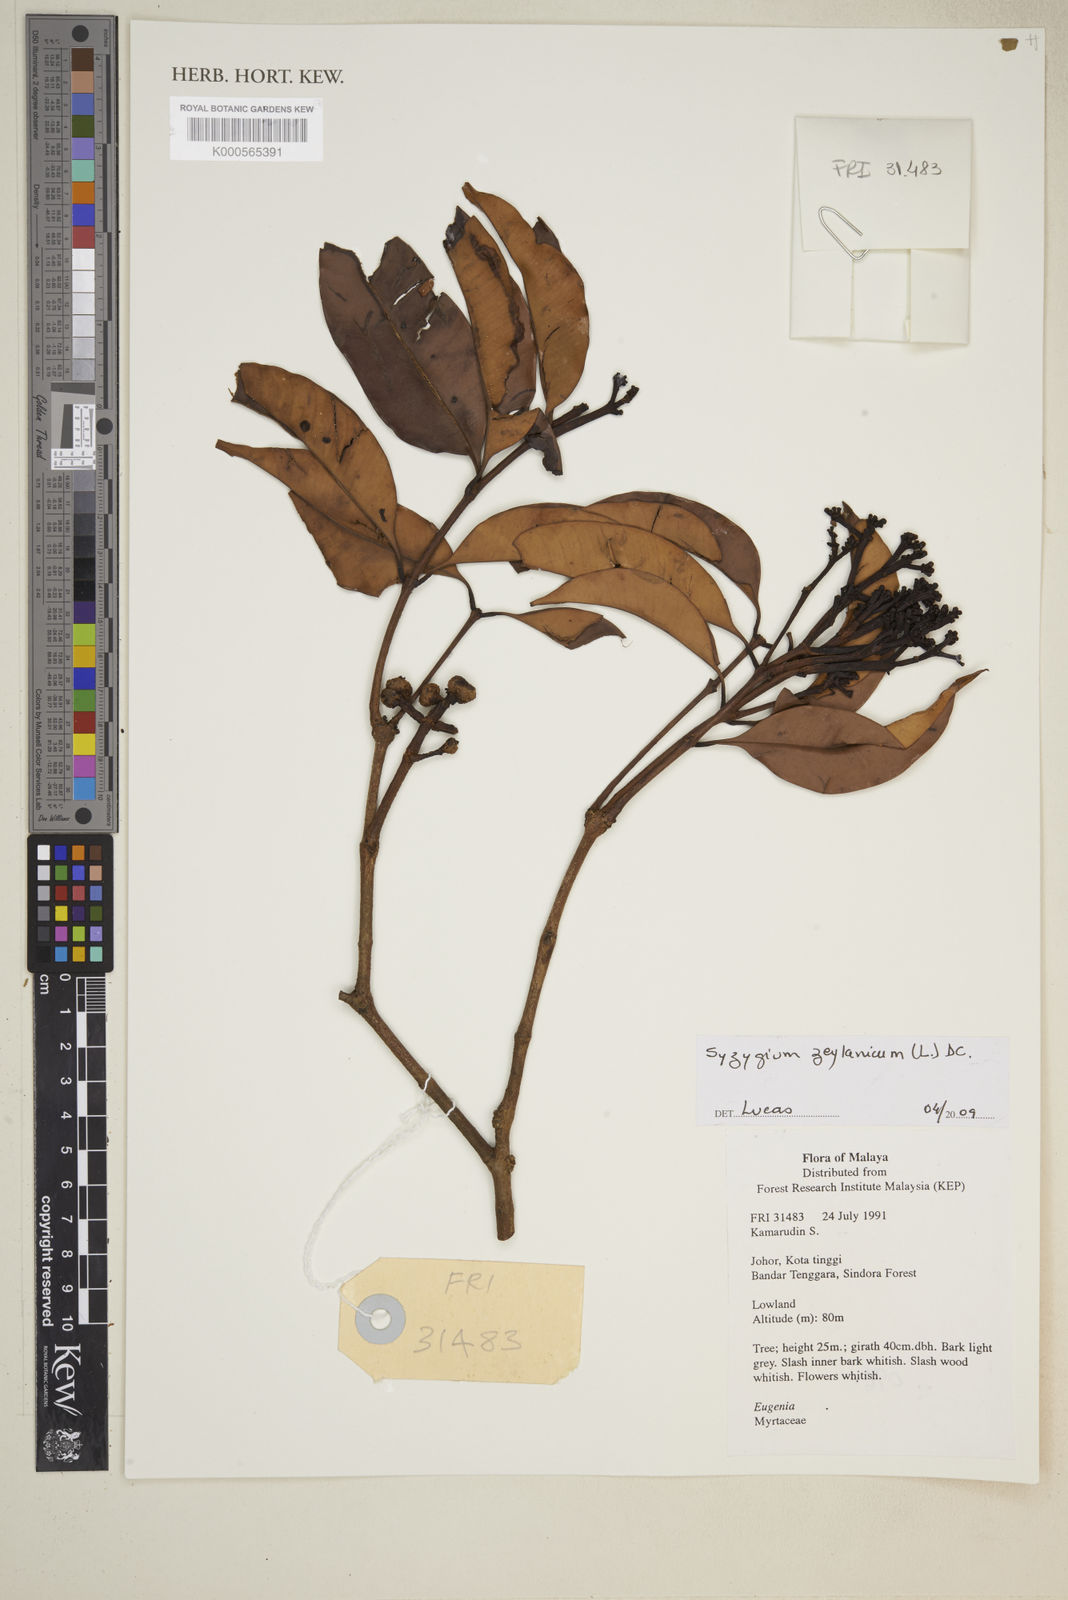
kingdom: Plantae
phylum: Tracheophyta
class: Magnoliopsida
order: Myrtales
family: Myrtaceae
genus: Syzygium
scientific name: Syzygium zeylanicum
